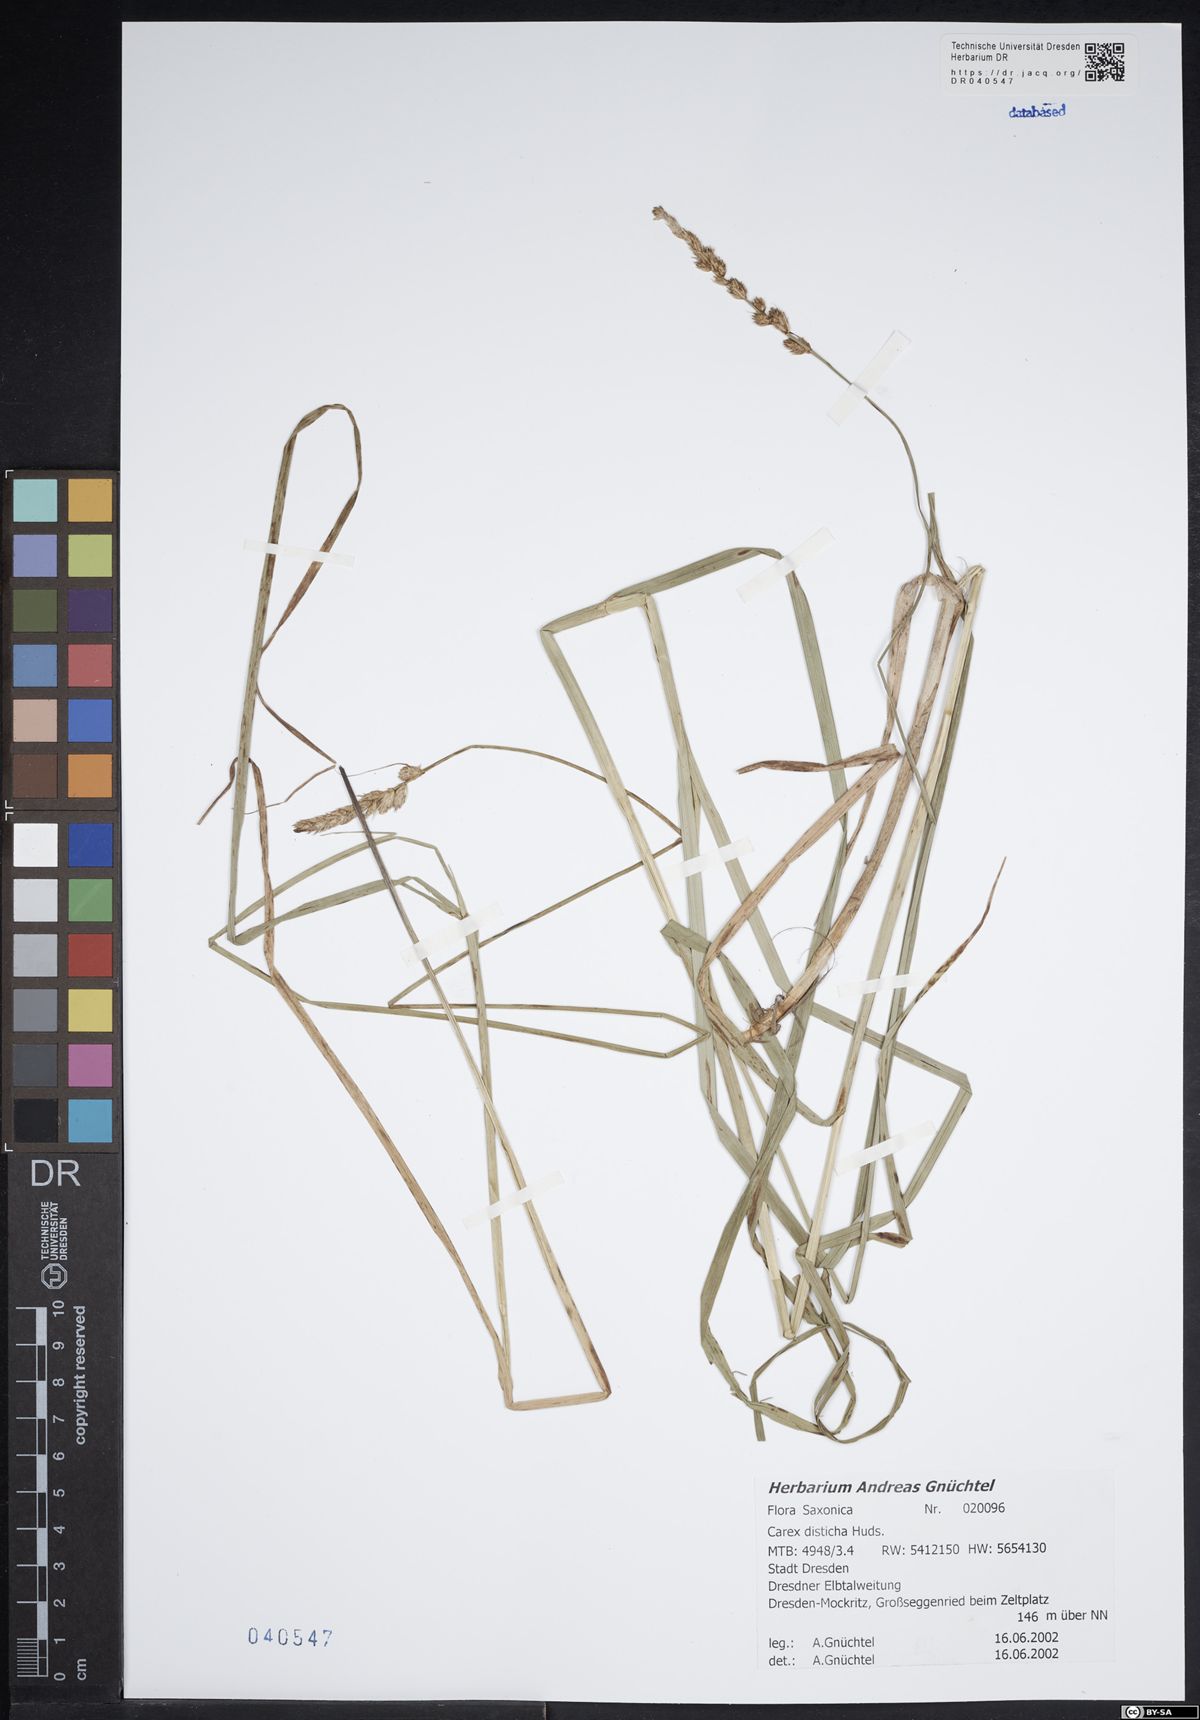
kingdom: Plantae
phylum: Tracheophyta
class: Liliopsida
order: Poales
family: Cyperaceae
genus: Carex
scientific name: Carex disticha
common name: Brown sedge
